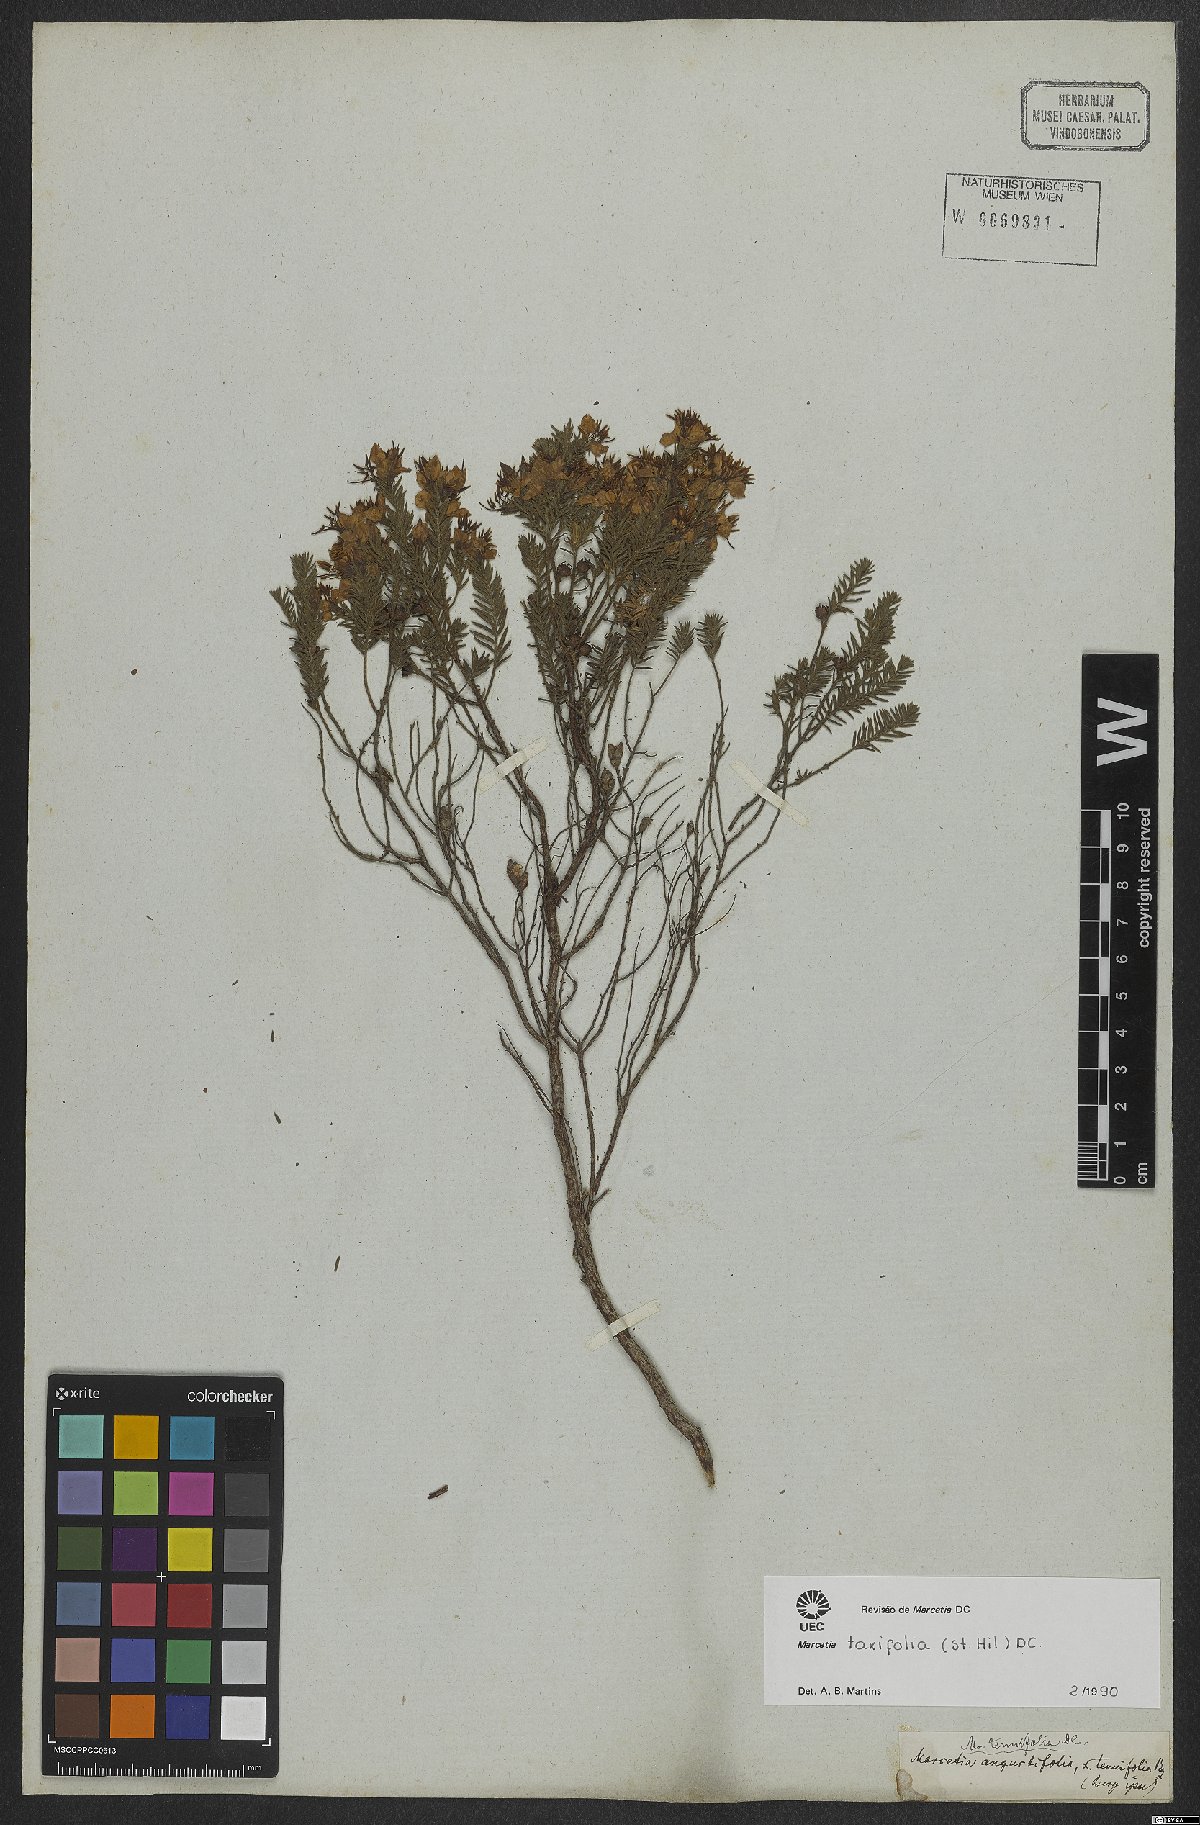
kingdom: Plantae
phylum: Tracheophyta
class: Magnoliopsida
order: Myrtales
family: Melastomataceae
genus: Marcetia
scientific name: Marcetia taxifolia
